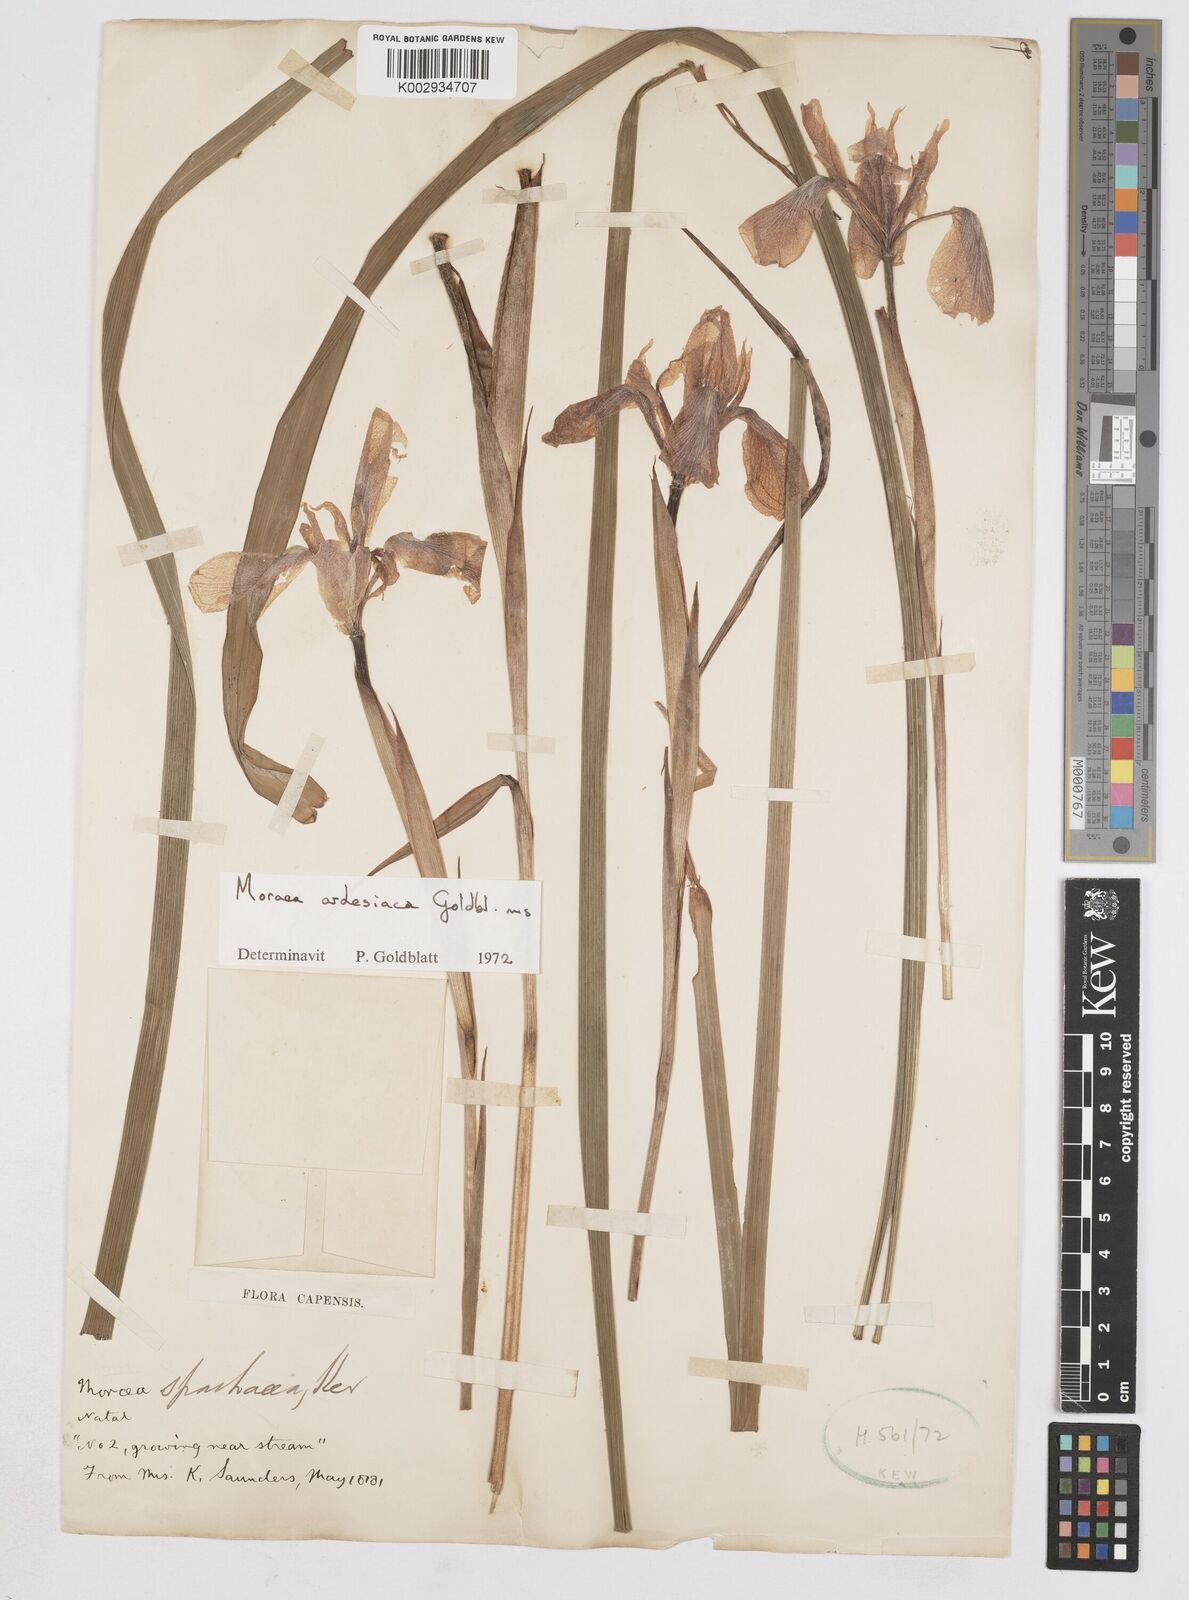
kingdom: Plantae
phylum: Tracheophyta
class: Liliopsida
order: Asparagales
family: Iridaceae
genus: Moraea
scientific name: Moraea ardesiaca
